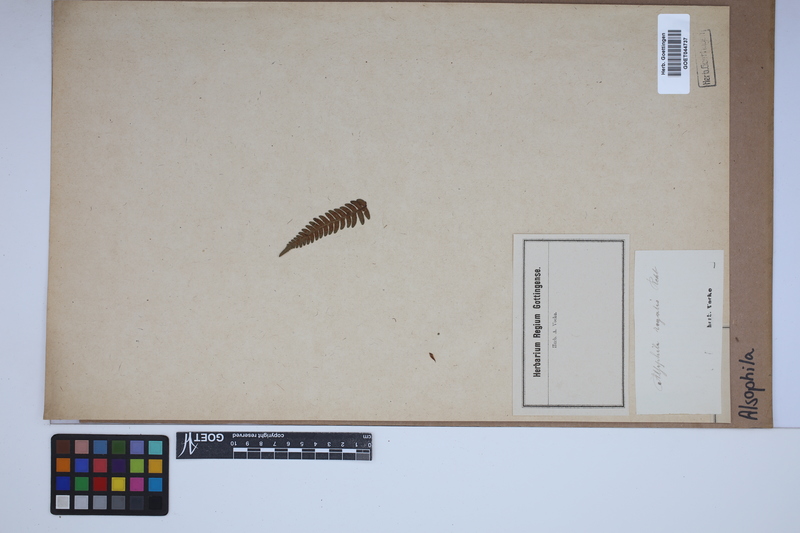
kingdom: Plantae
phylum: Tracheophyta
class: Polypodiopsida
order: Cyatheales
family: Cyatheaceae
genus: Alsophila
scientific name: Alsophila
